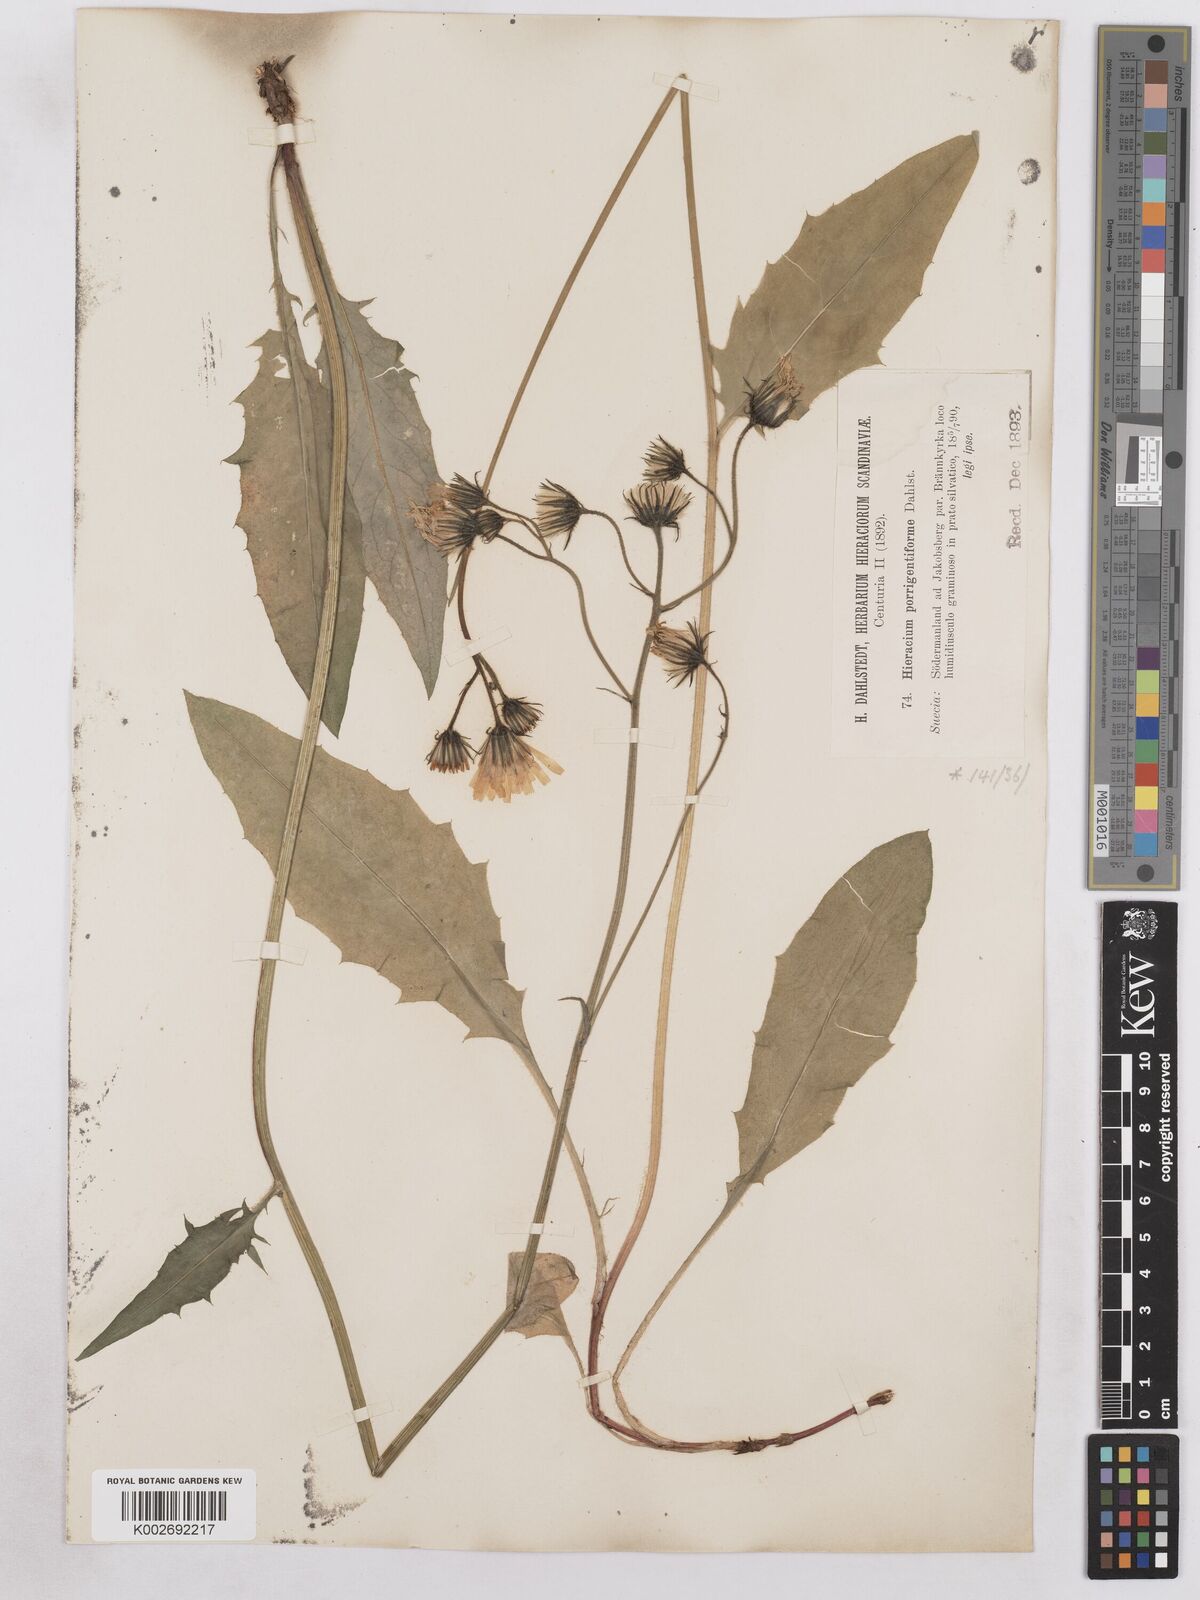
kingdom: Plantae
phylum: Tracheophyta
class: Magnoliopsida
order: Asterales
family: Asteraceae
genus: Hieracium
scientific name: Hieracium diaphanoides
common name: Fine-bracted hawkweed
